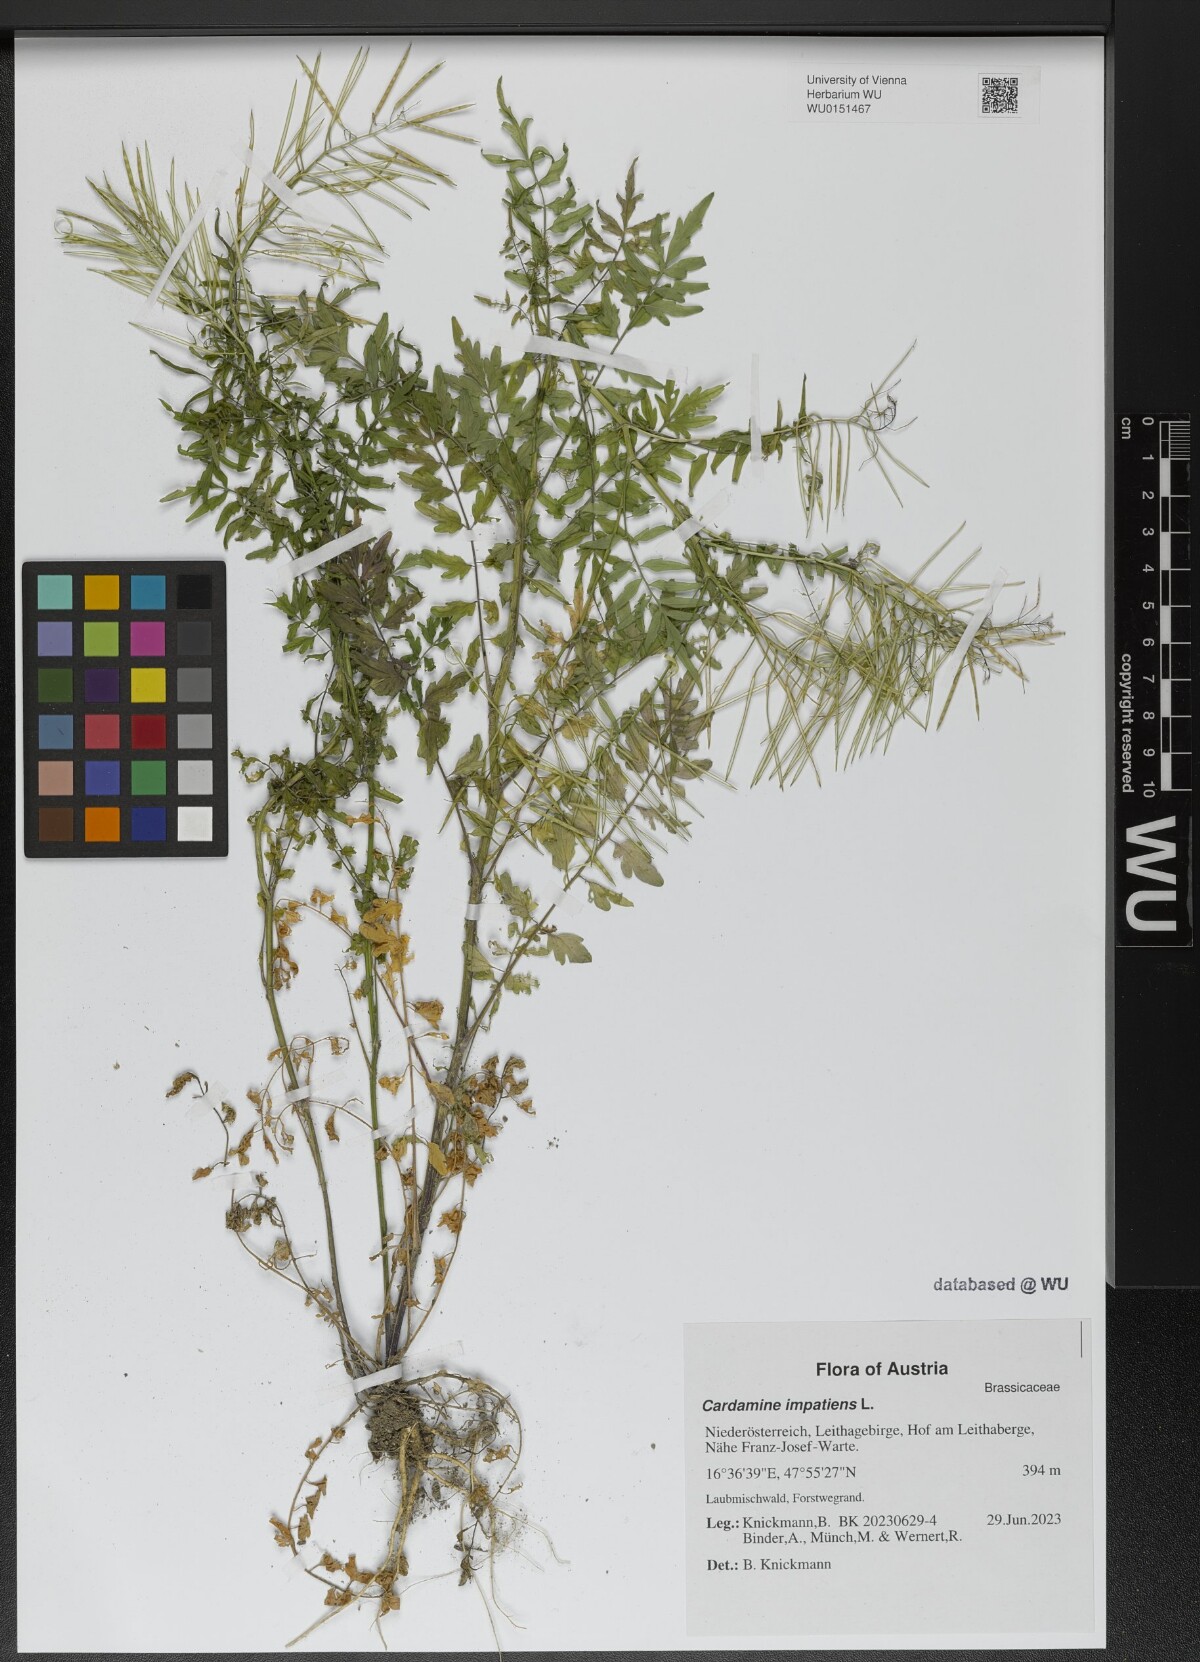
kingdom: Plantae
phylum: Tracheophyta
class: Magnoliopsida
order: Brassicales
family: Brassicaceae
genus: Cardamine
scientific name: Cardamine impatiens
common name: Narrow-leaved bitter-cress
